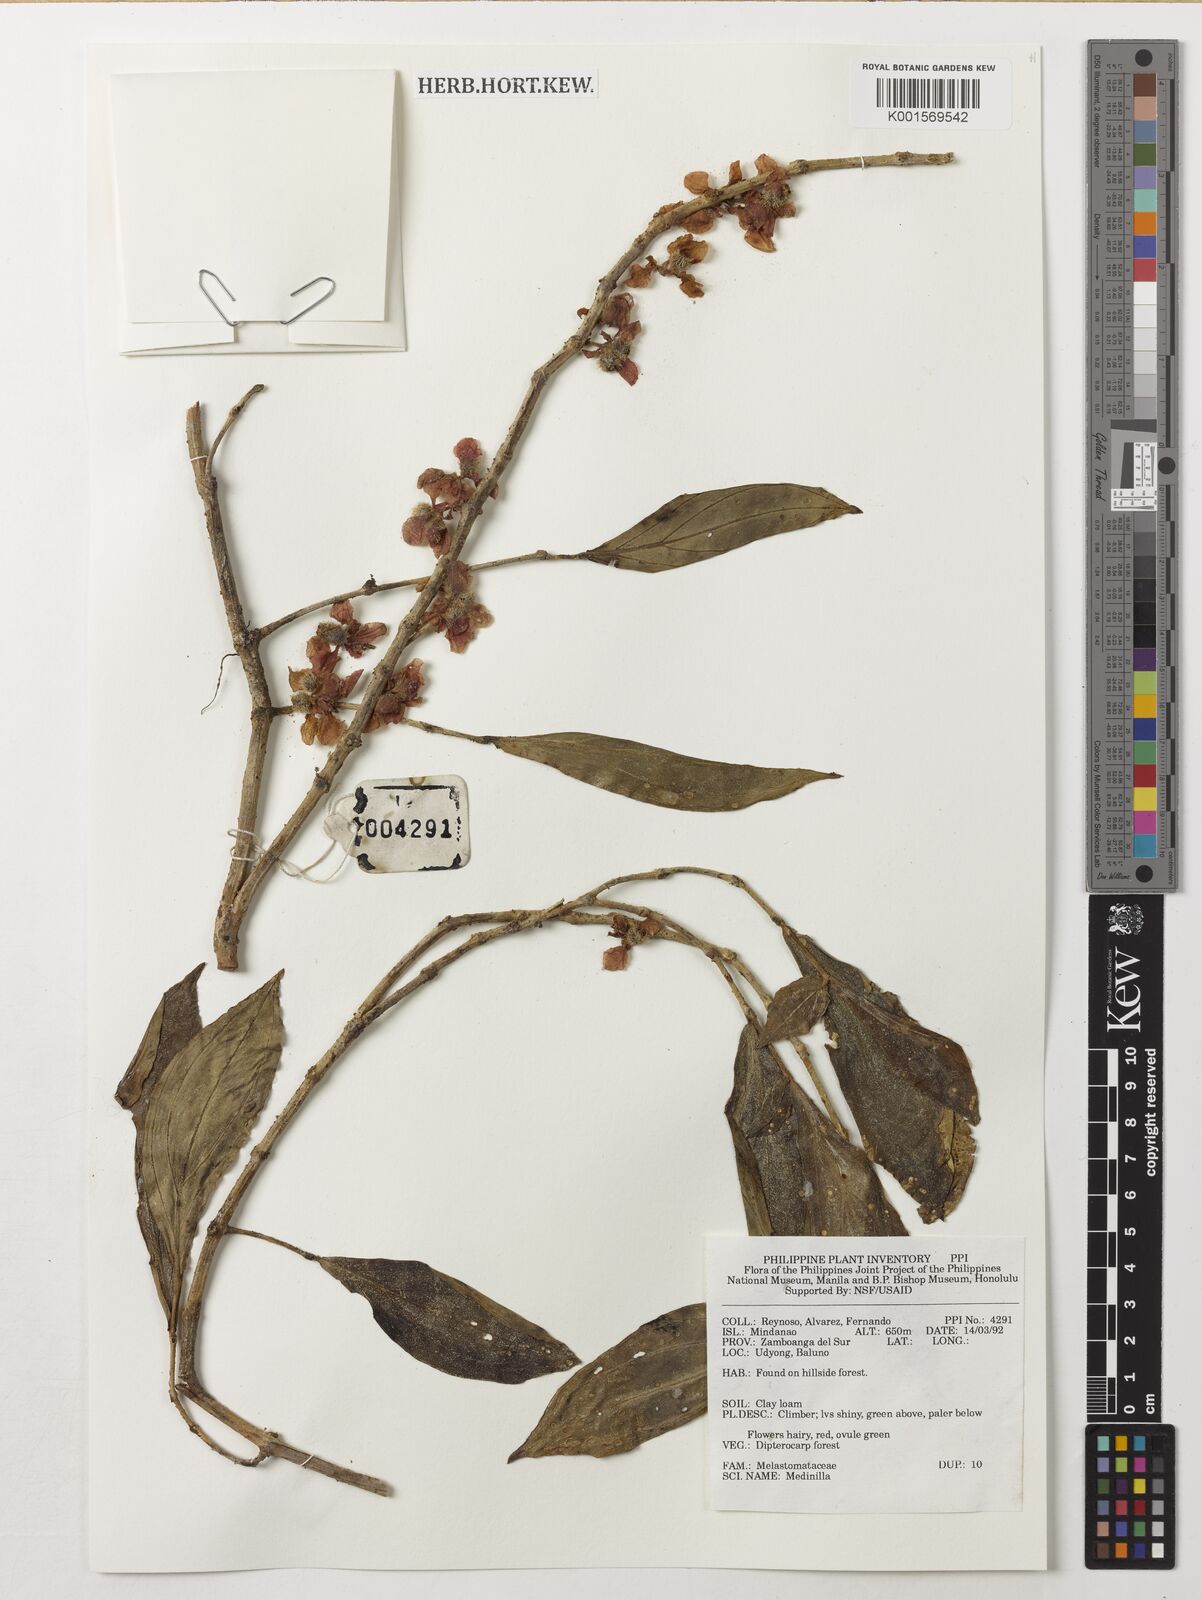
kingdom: Plantae
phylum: Tracheophyta
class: Magnoliopsida
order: Myrtales
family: Melastomataceae
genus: Medinilla
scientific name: Medinilla
